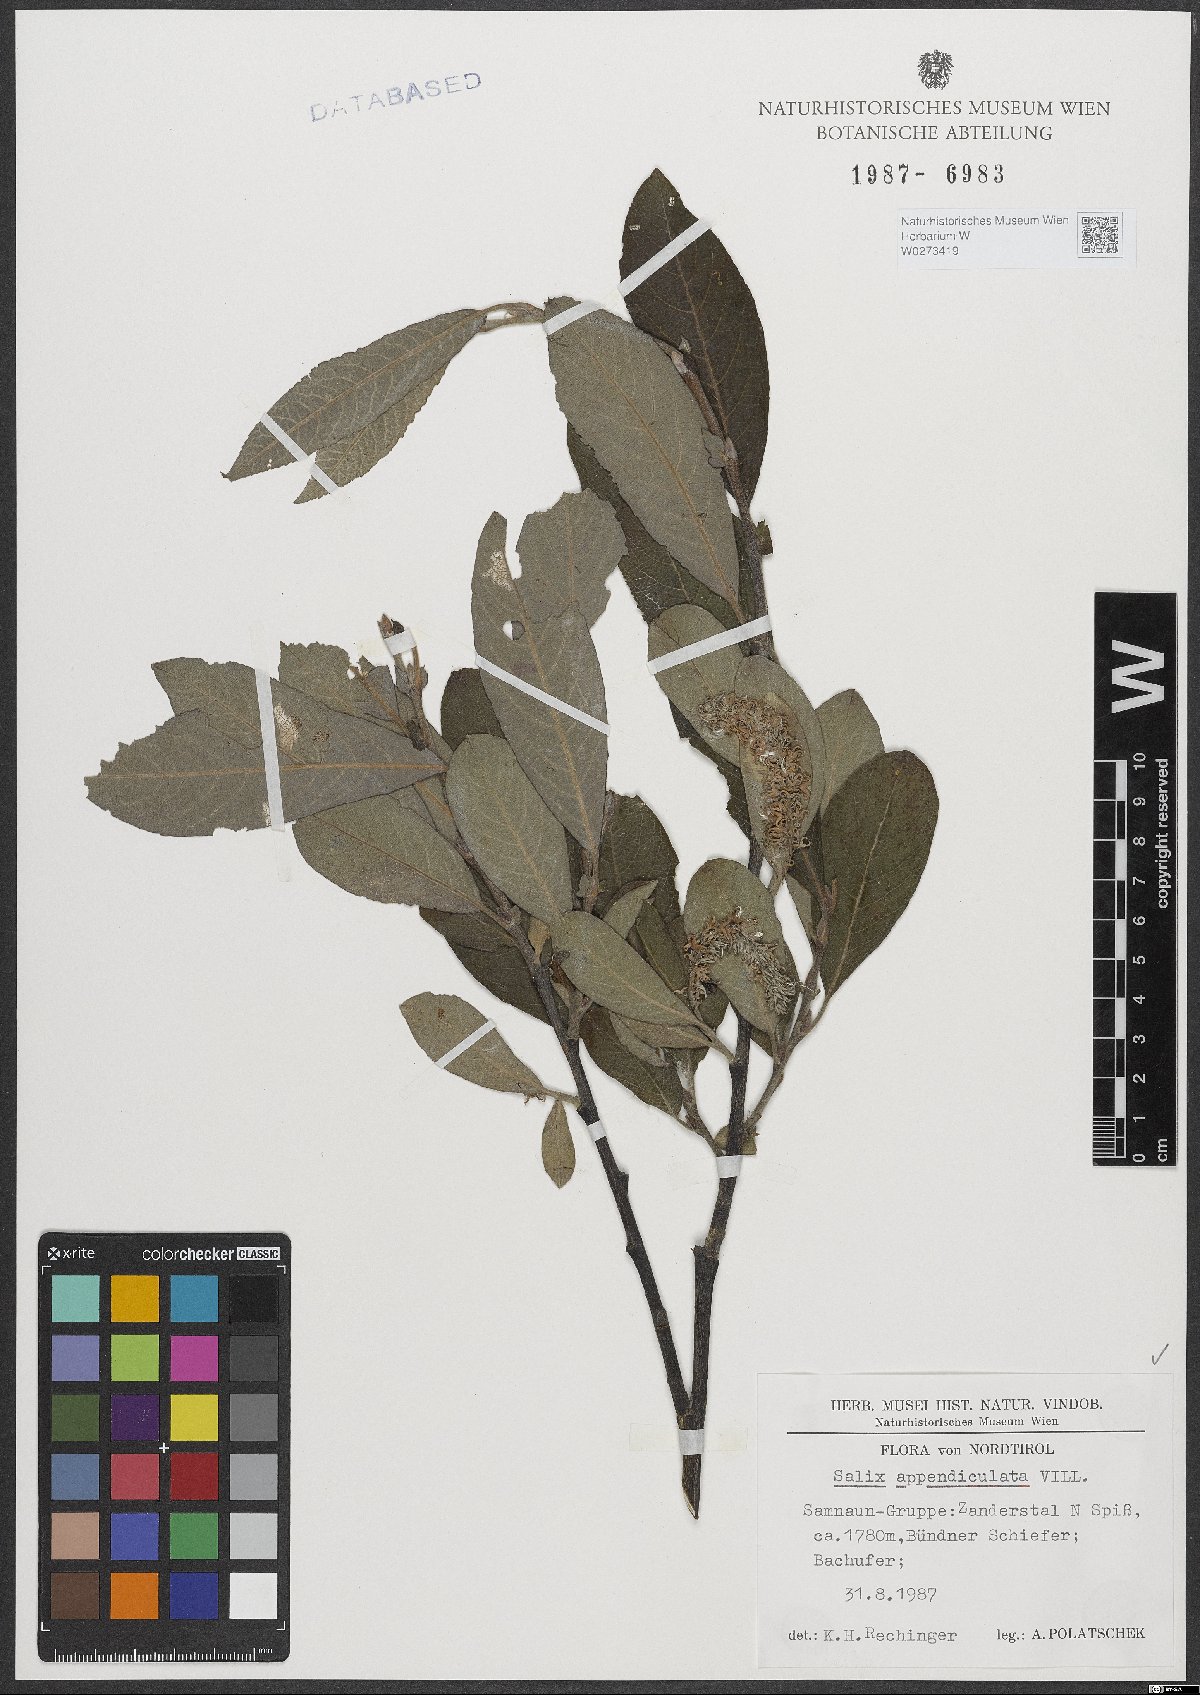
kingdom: Plantae
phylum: Tracheophyta
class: Magnoliopsida
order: Malpighiales
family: Salicaceae
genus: Salix
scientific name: Salix appendiculata
